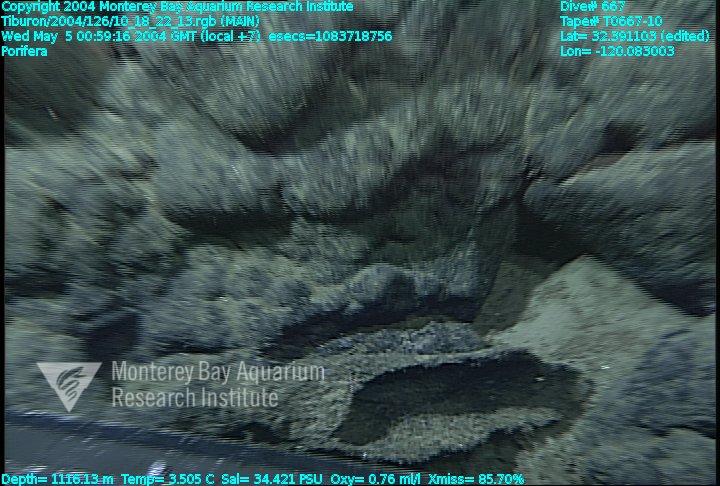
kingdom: Animalia
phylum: Porifera
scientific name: Porifera
